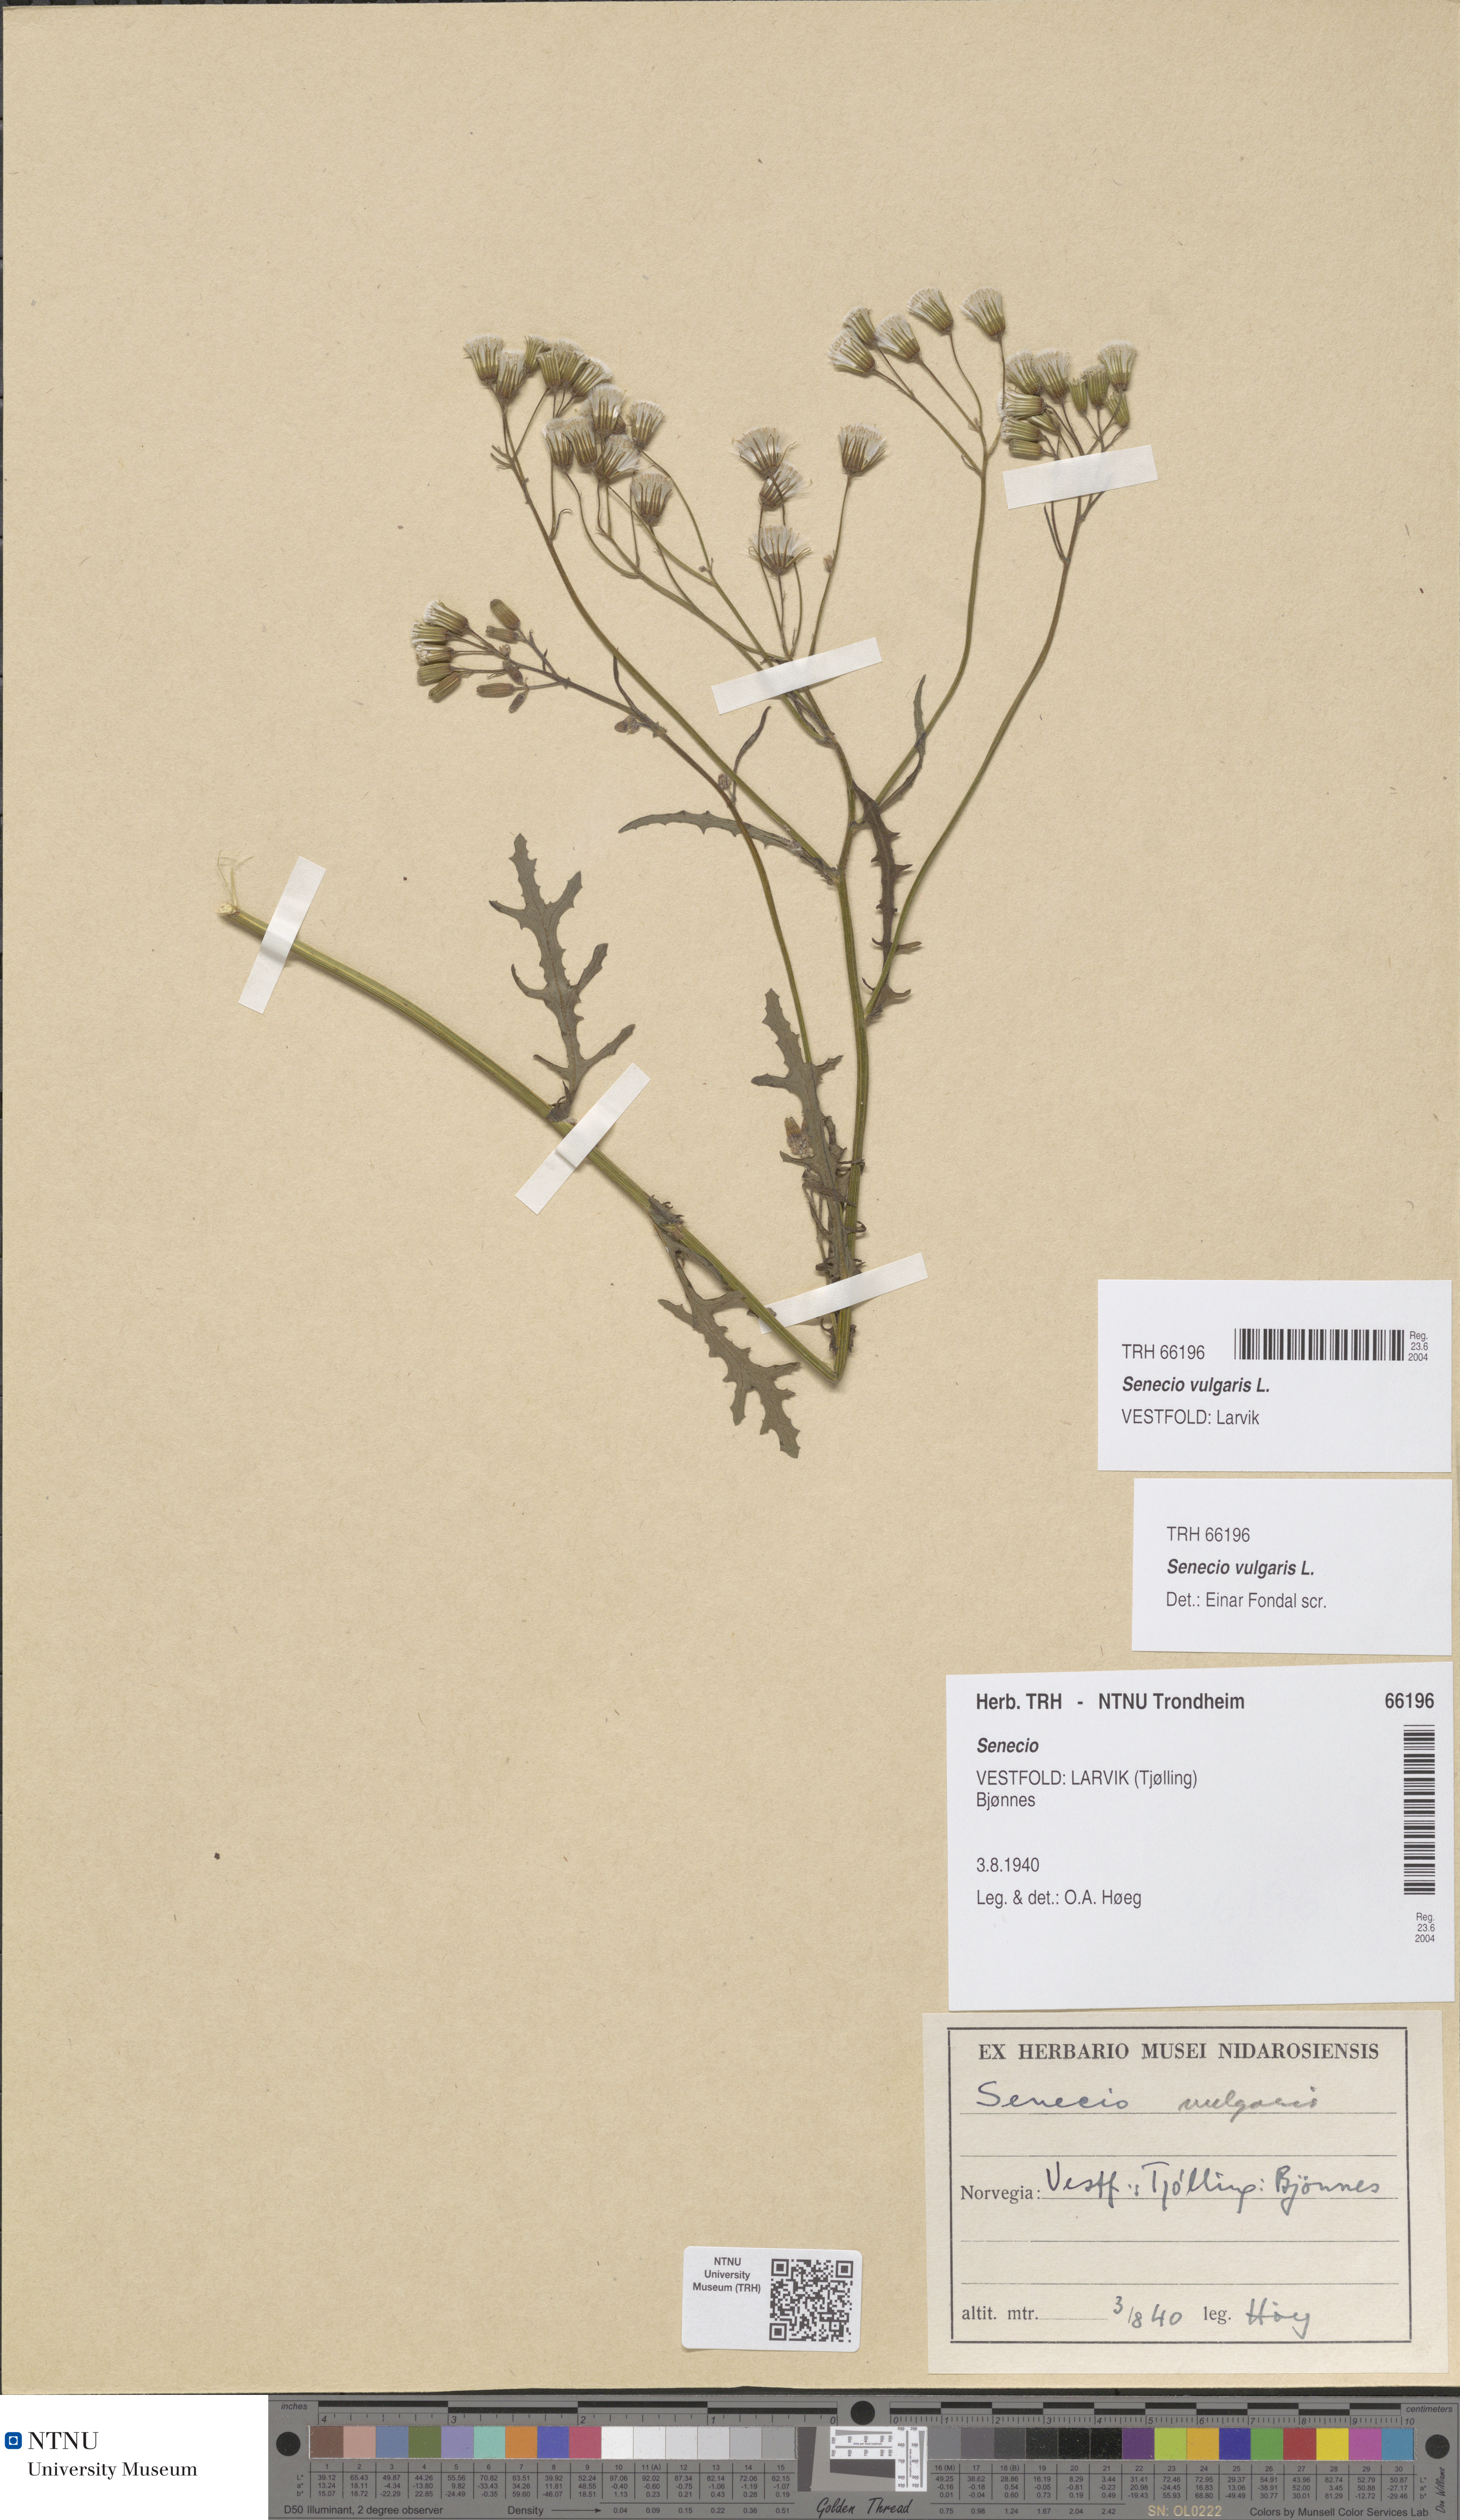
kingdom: Plantae
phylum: Tracheophyta
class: Magnoliopsida
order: Asterales
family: Asteraceae
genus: Senecio
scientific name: Senecio vulgaris
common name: Old-man-in-the-spring
